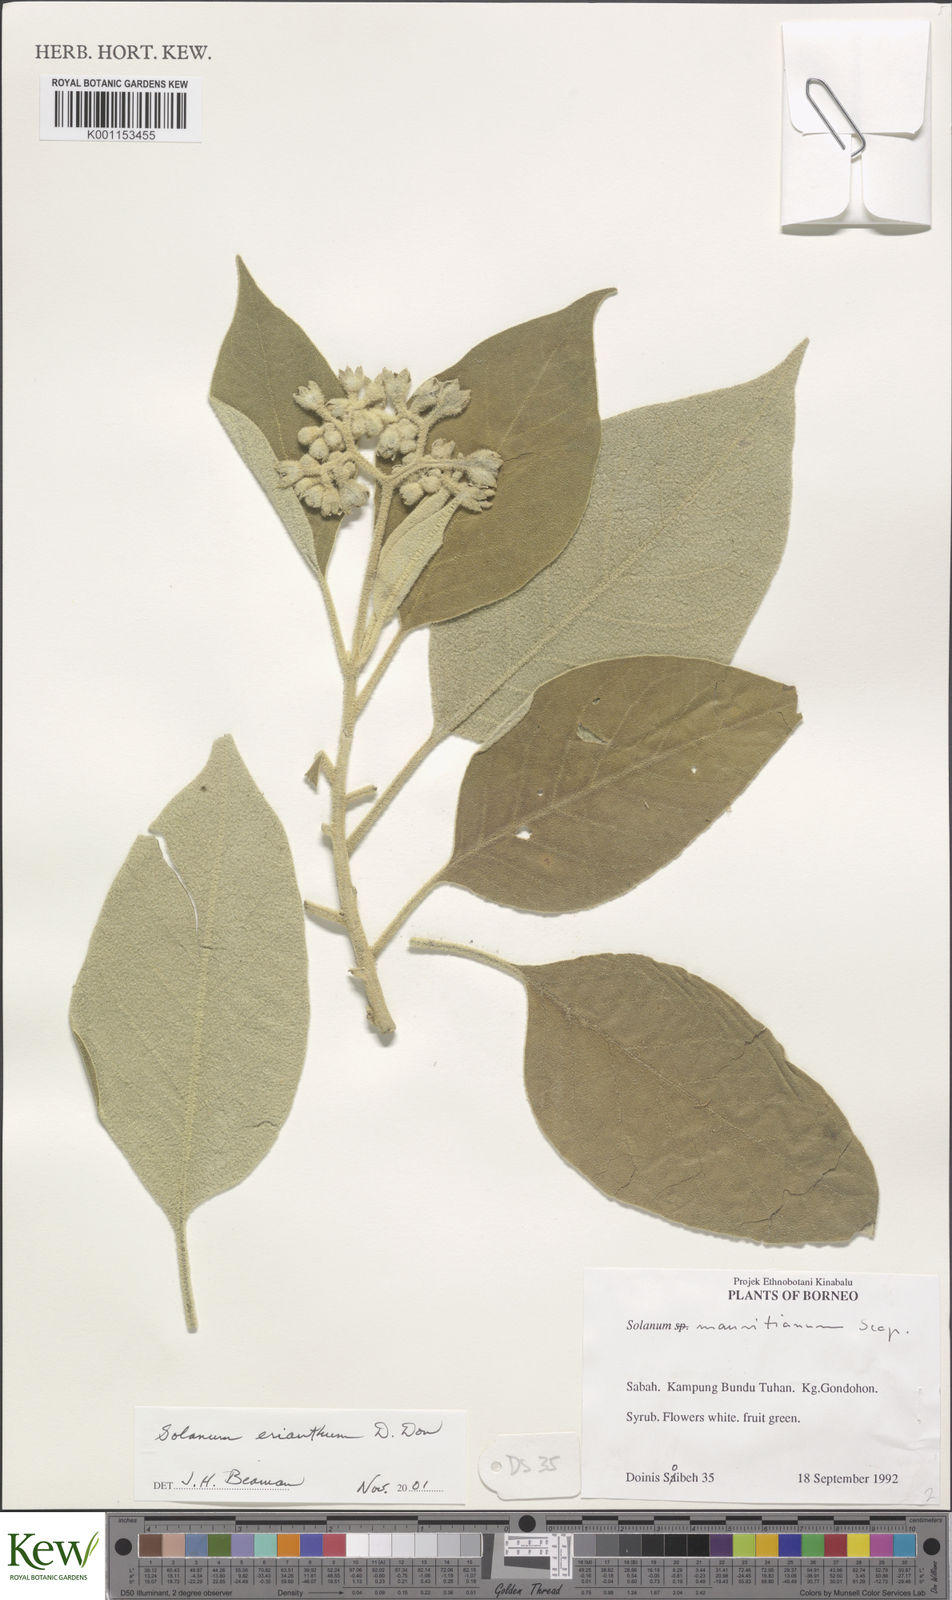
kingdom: Plantae
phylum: Tracheophyta
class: Magnoliopsida
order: Solanales
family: Solanaceae
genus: Solanum
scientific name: Solanum erianthum
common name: Tobacco-tree
